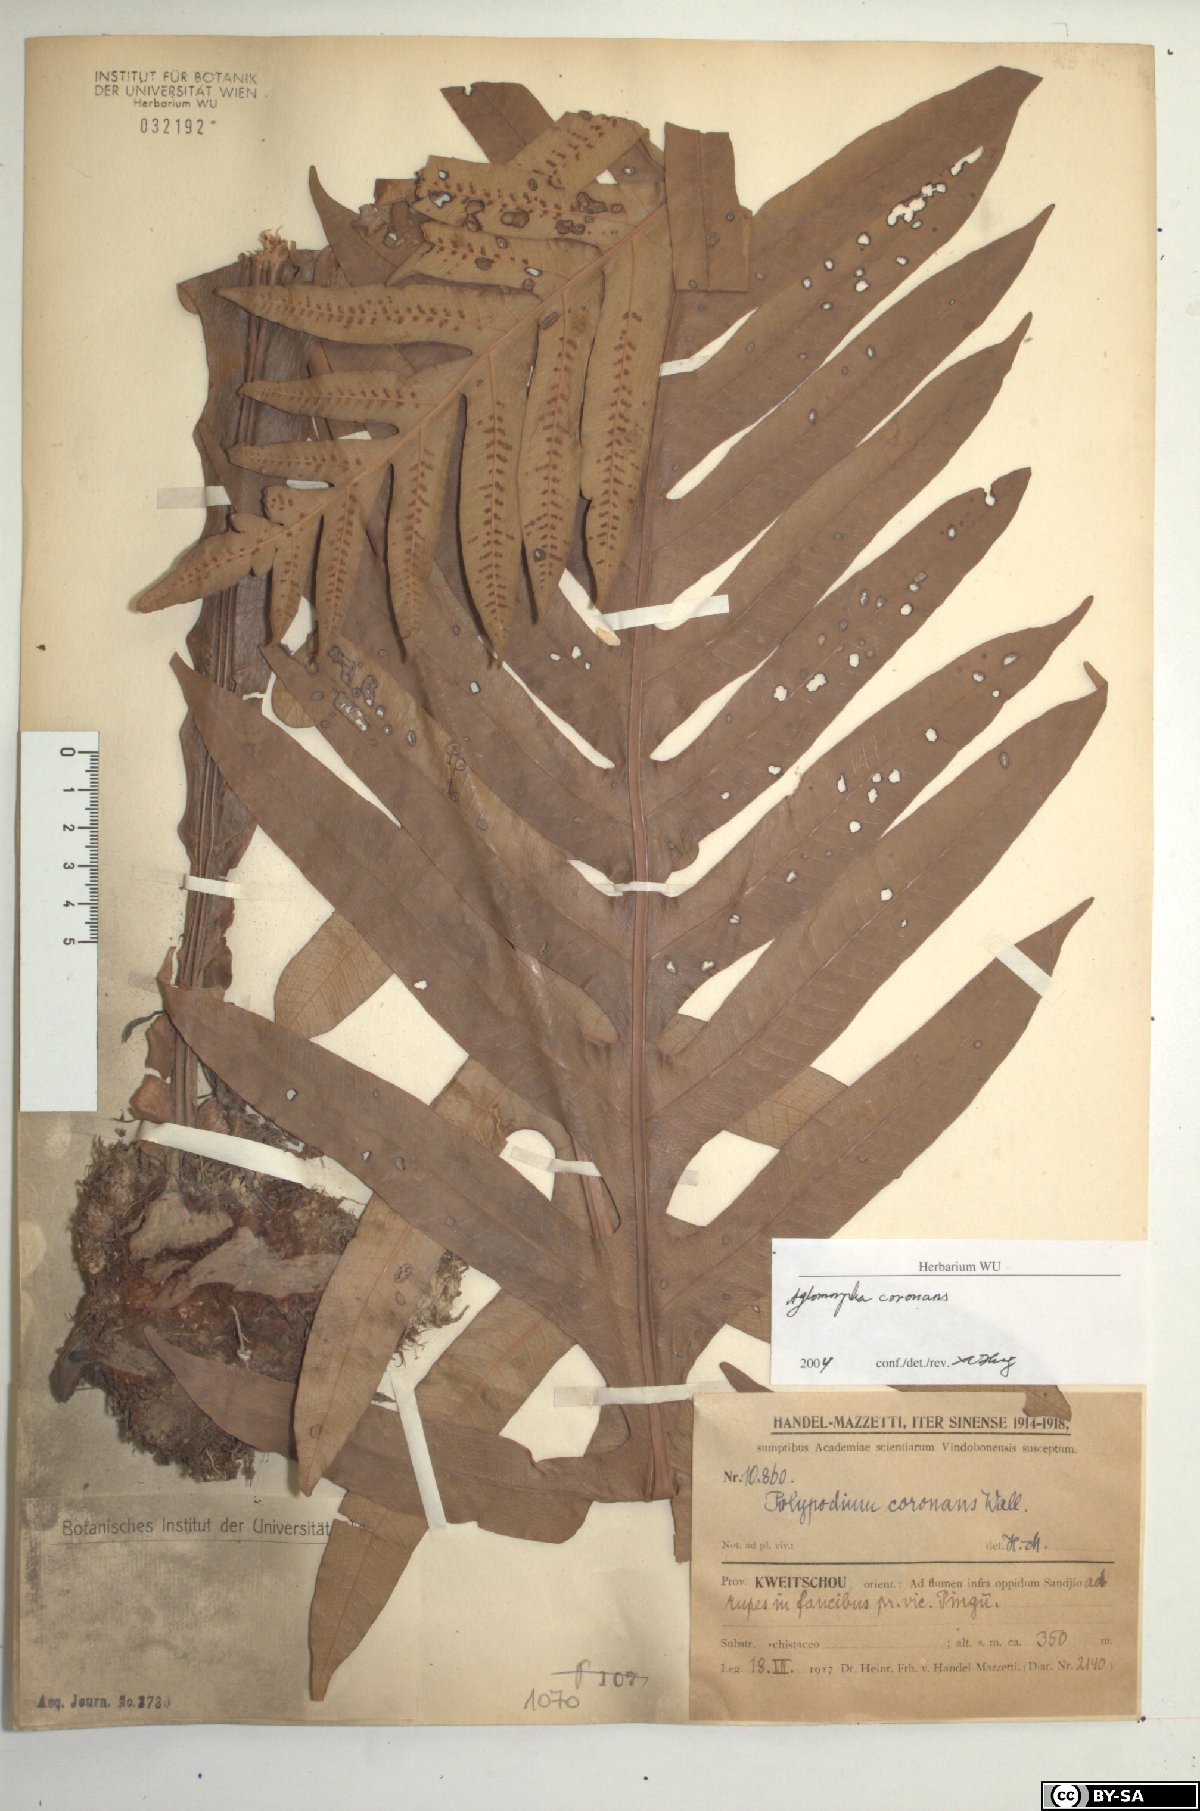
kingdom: Plantae
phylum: Tracheophyta
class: Polypodiopsida
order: Polypodiales
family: Polypodiaceae
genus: Drynaria
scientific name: Drynaria coronans
